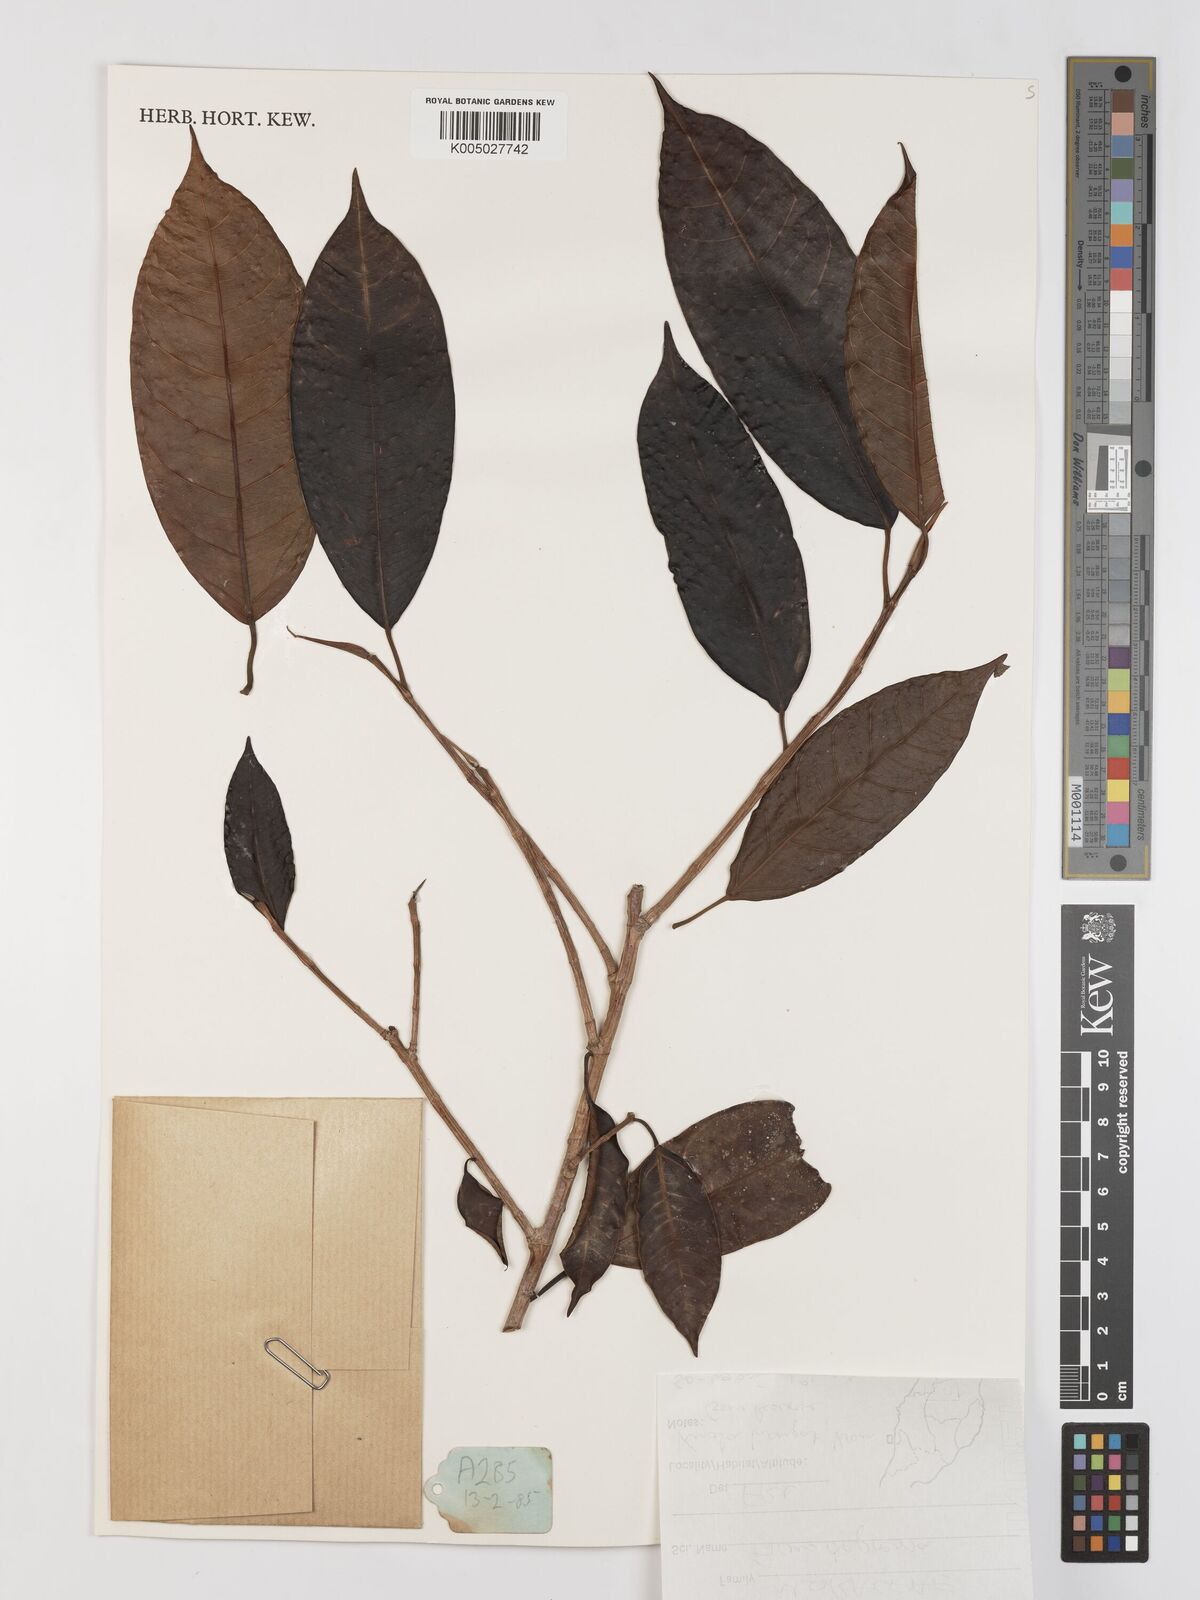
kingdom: Plantae
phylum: Tracheophyta
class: Magnoliopsida
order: Rosales
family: Moraceae
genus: Ficus
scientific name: Ficus
